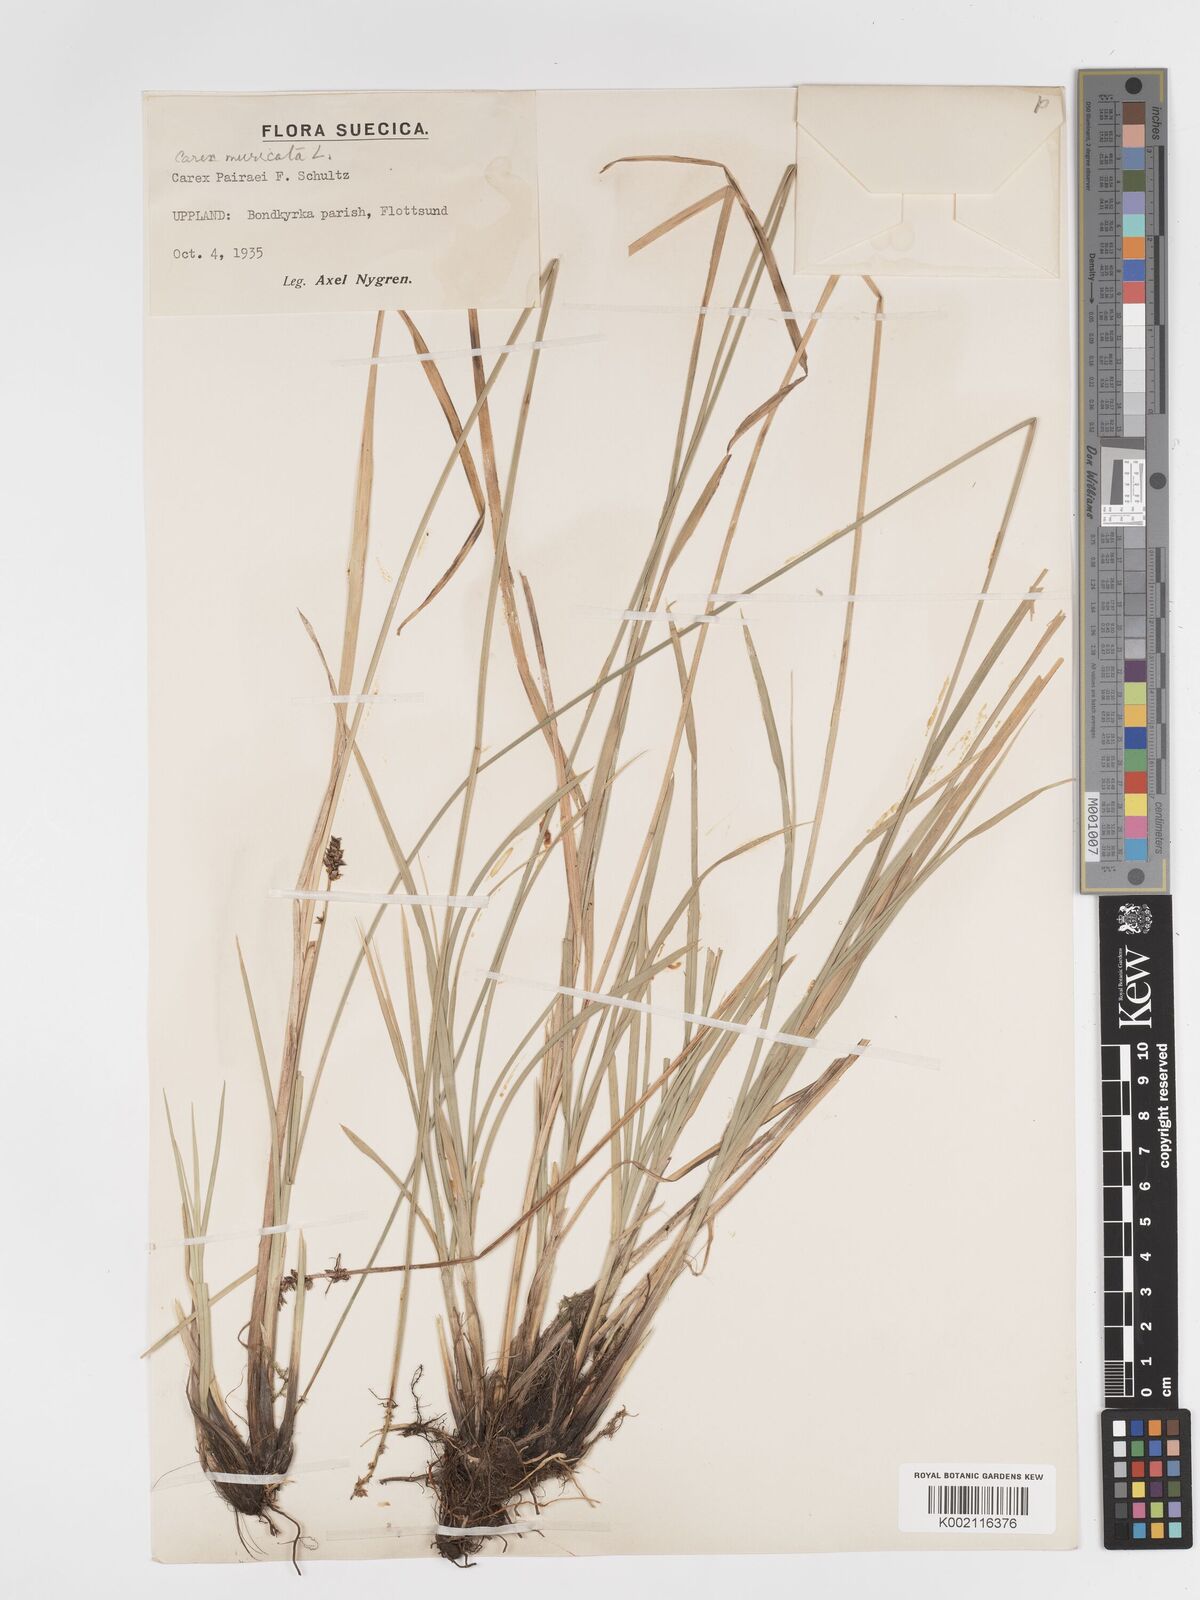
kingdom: Plantae
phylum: Tracheophyta
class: Liliopsida
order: Poales
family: Cyperaceae
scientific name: Cyperaceae
